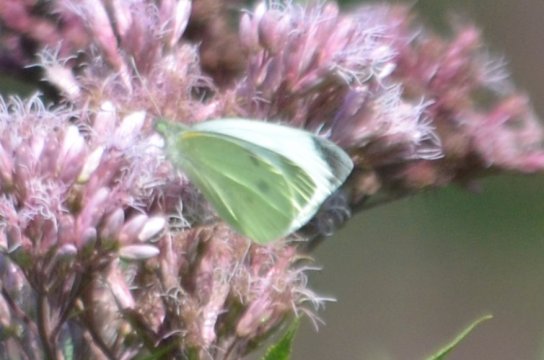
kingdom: Animalia
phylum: Arthropoda
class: Insecta
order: Lepidoptera
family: Pieridae
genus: Pieris
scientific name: Pieris rapae
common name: Cabbage White
